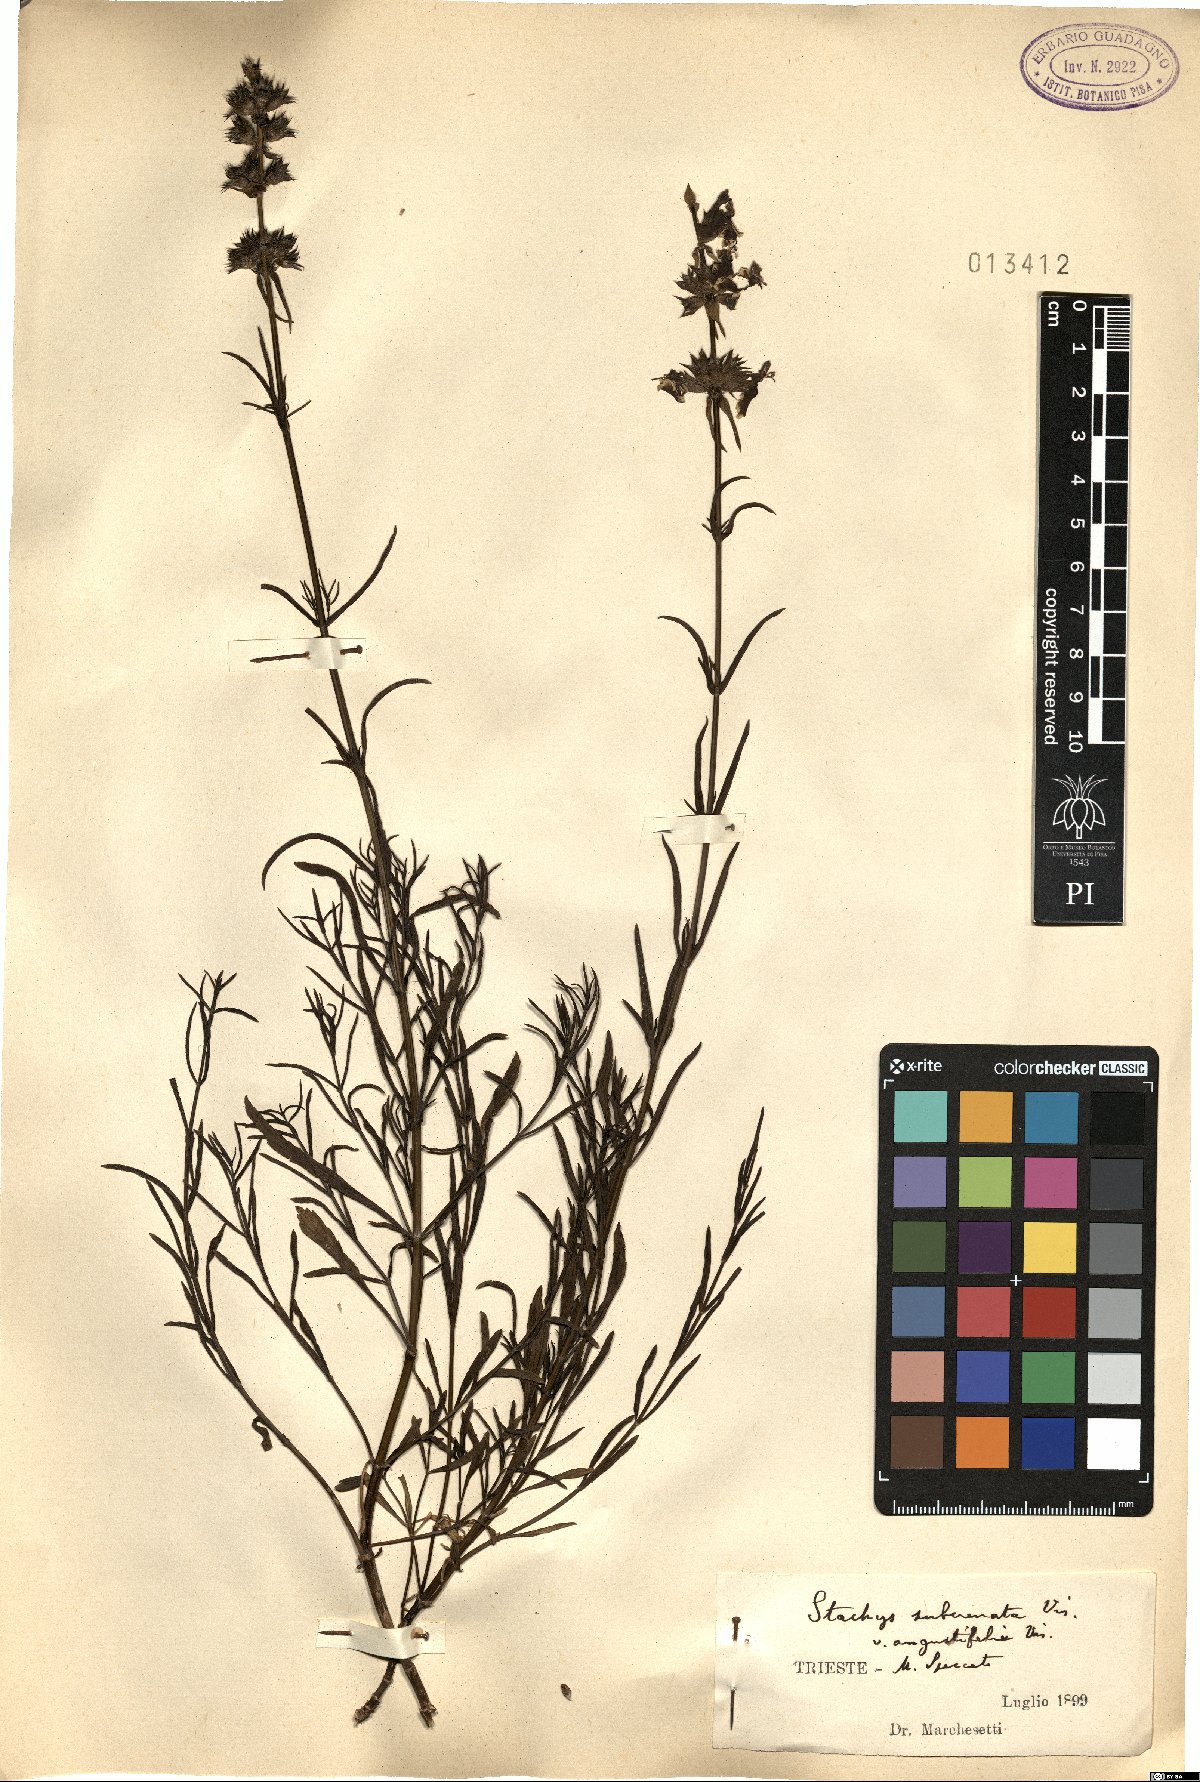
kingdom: Plantae
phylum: Tracheophyta
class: Magnoliopsida
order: Lamiales
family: Lamiaceae
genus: Stachys
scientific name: Stachys recta
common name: Perennial yellow-woundwort
